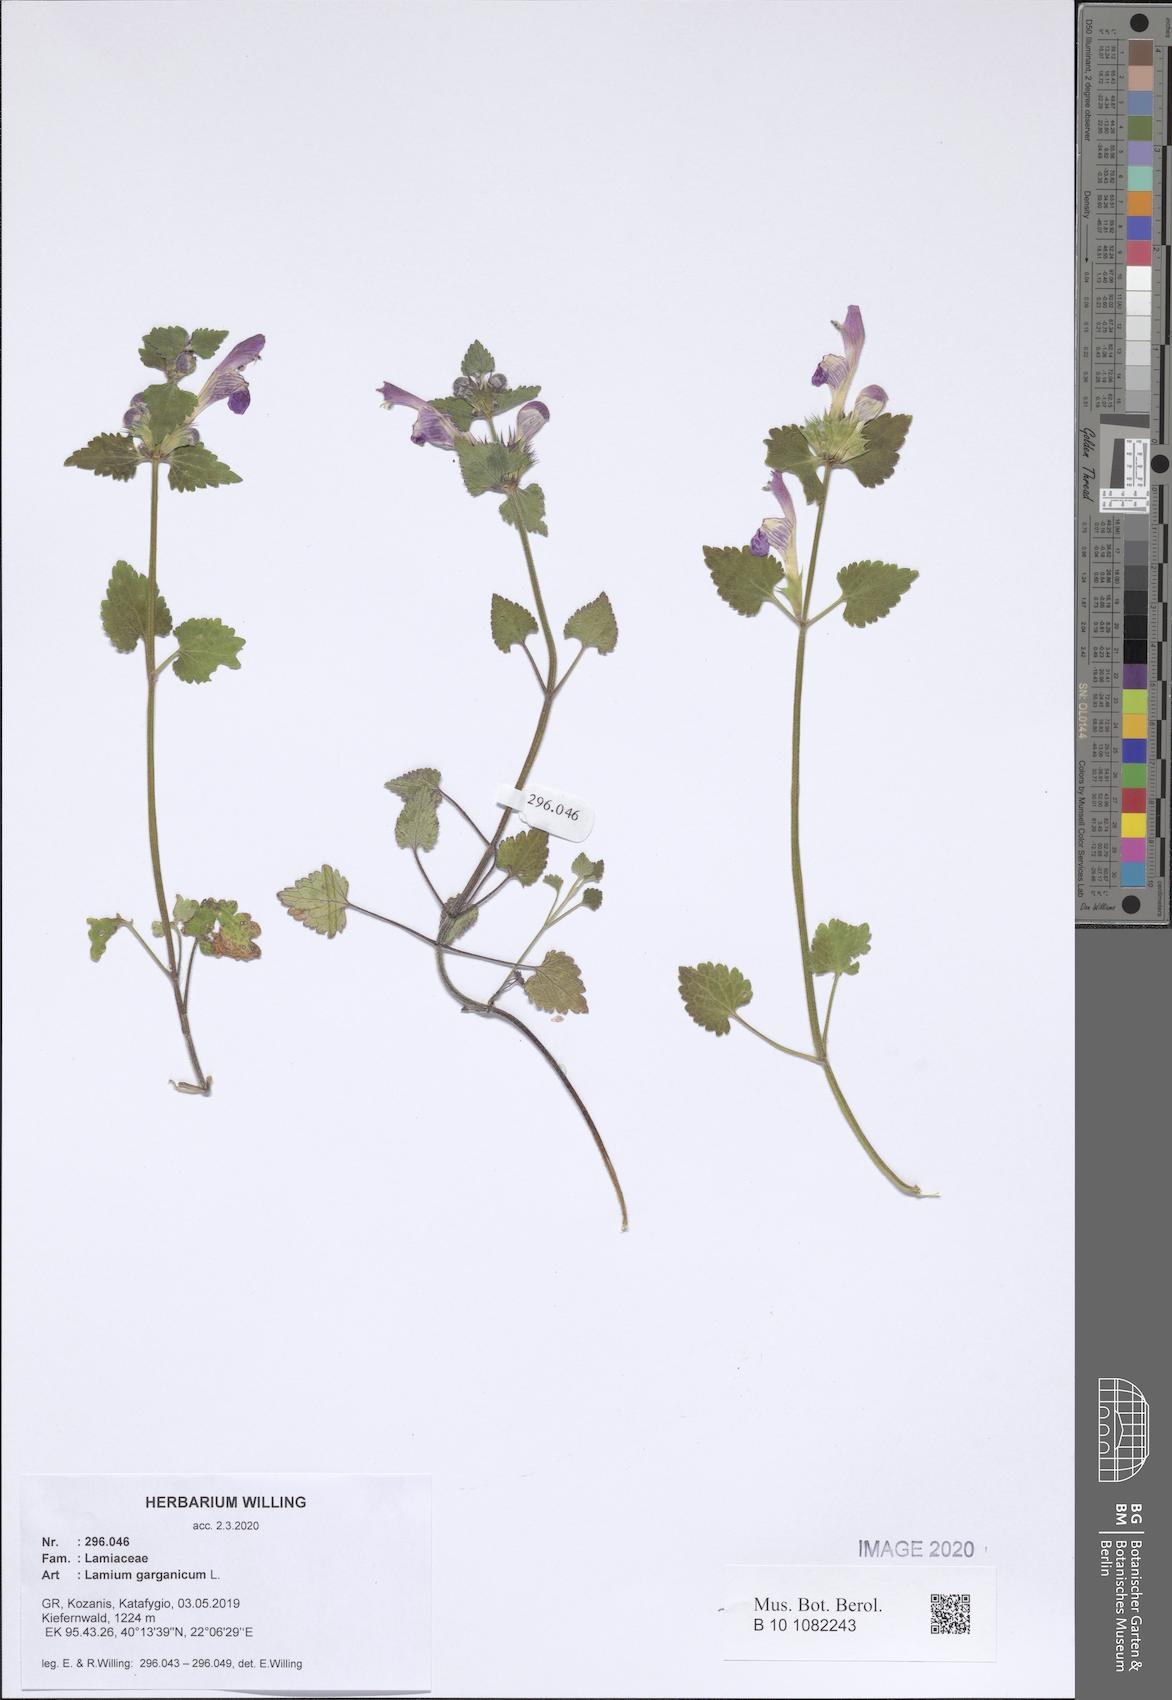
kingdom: Plantae
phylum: Tracheophyta
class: Magnoliopsida
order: Lamiales
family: Lamiaceae
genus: Lamium
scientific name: Lamium garganicum
